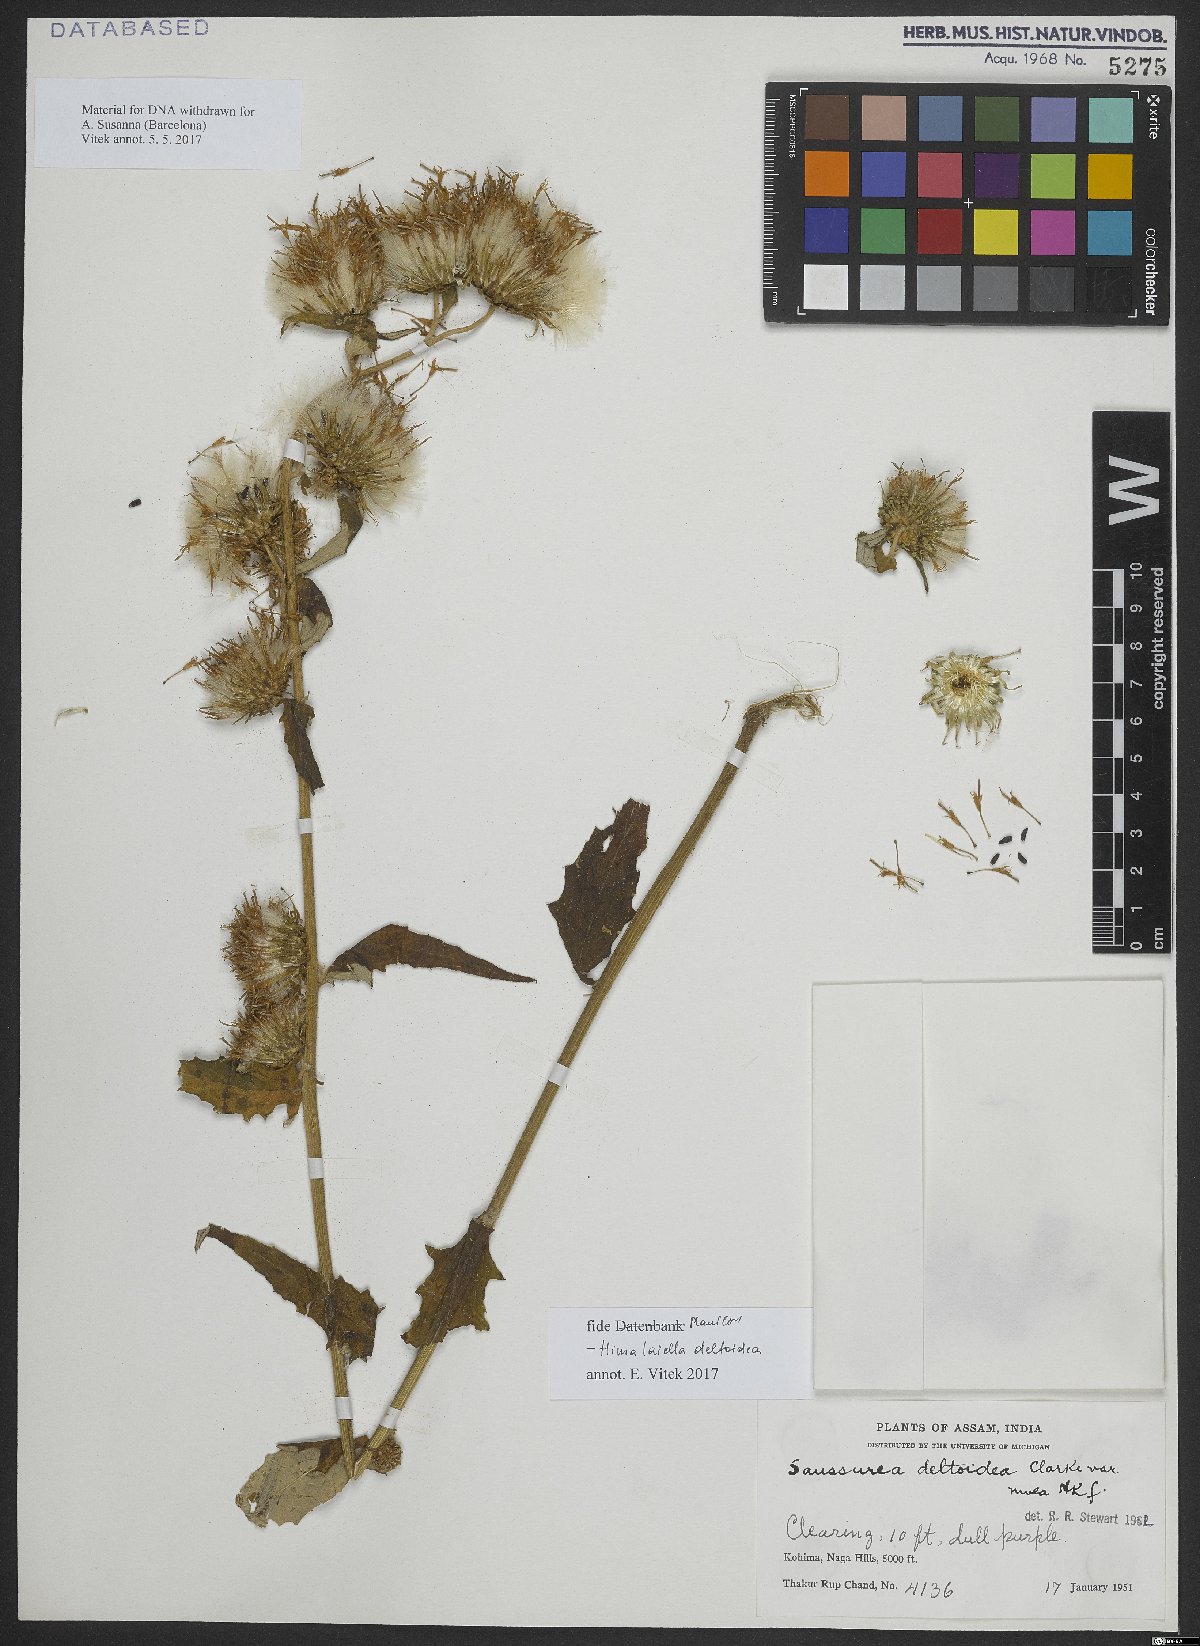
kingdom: Plantae
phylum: Tracheophyta
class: Magnoliopsida
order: Asterales
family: Asteraceae
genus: Jurinea
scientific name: Jurinea deltoidea
